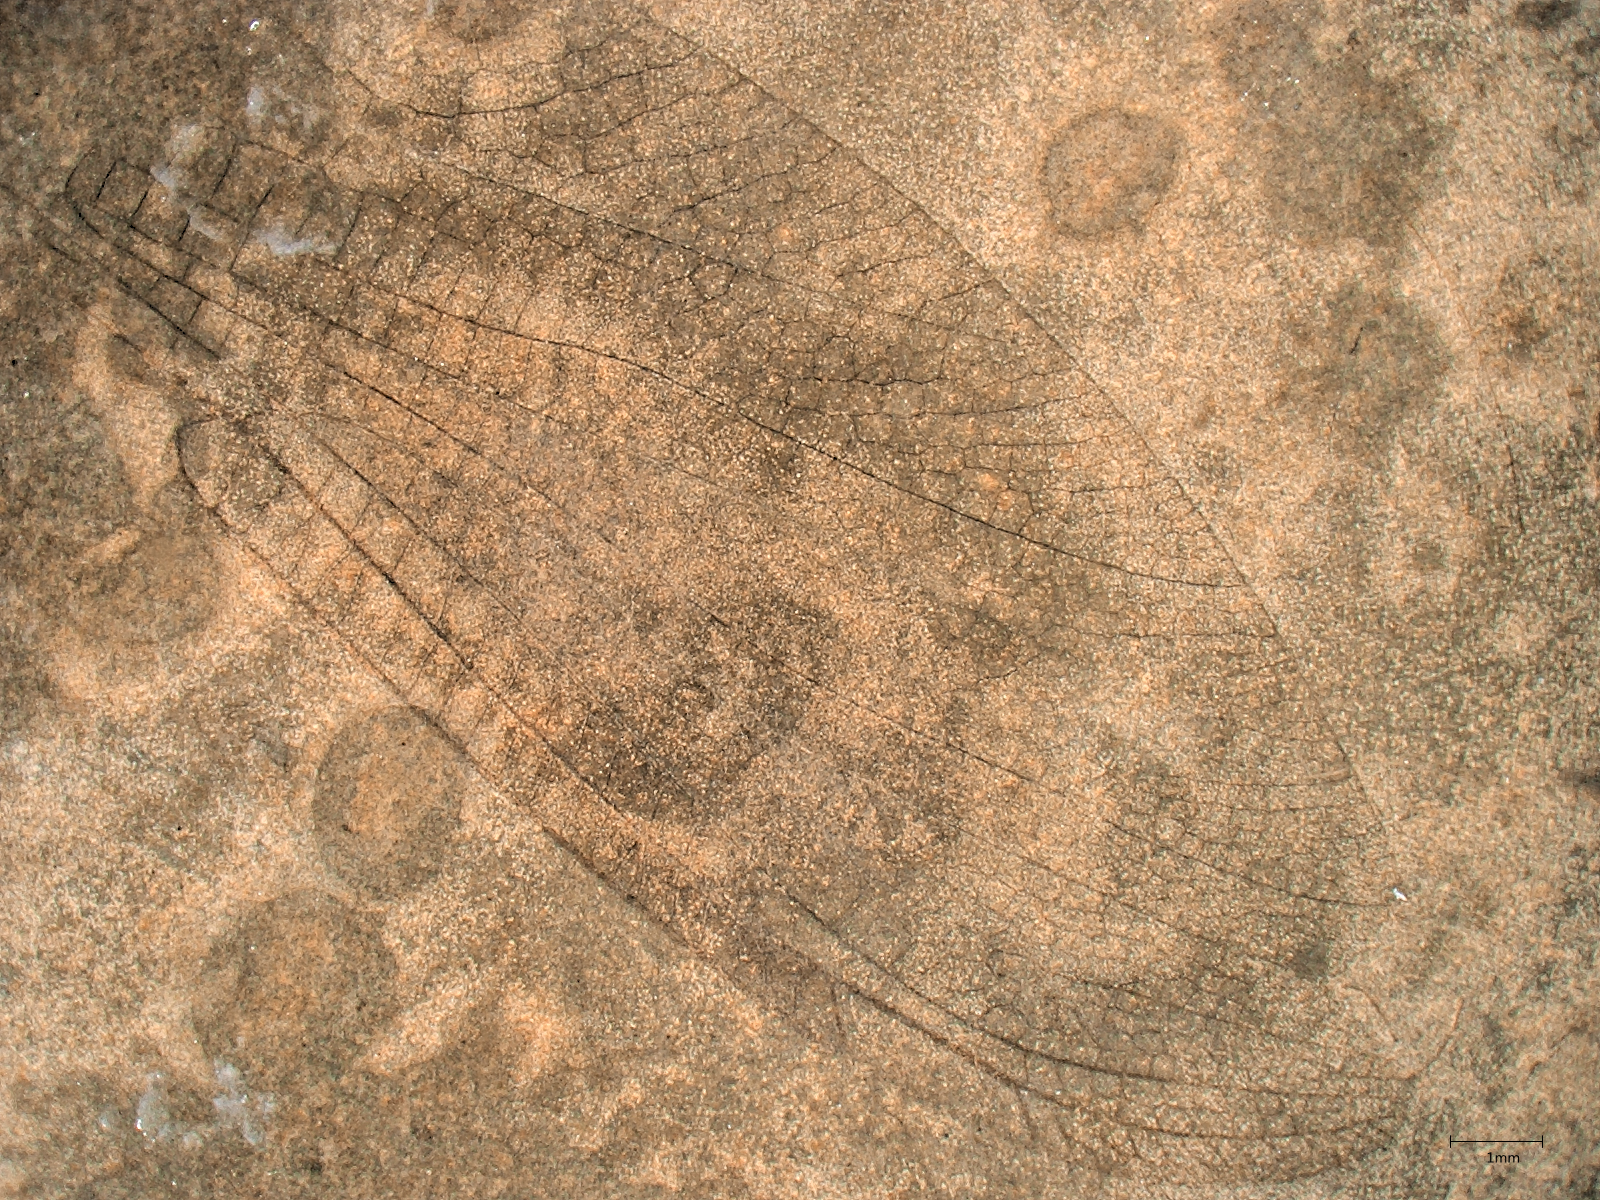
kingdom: Animalia
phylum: Arthropoda
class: Insecta
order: Odonata
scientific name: Odonata
